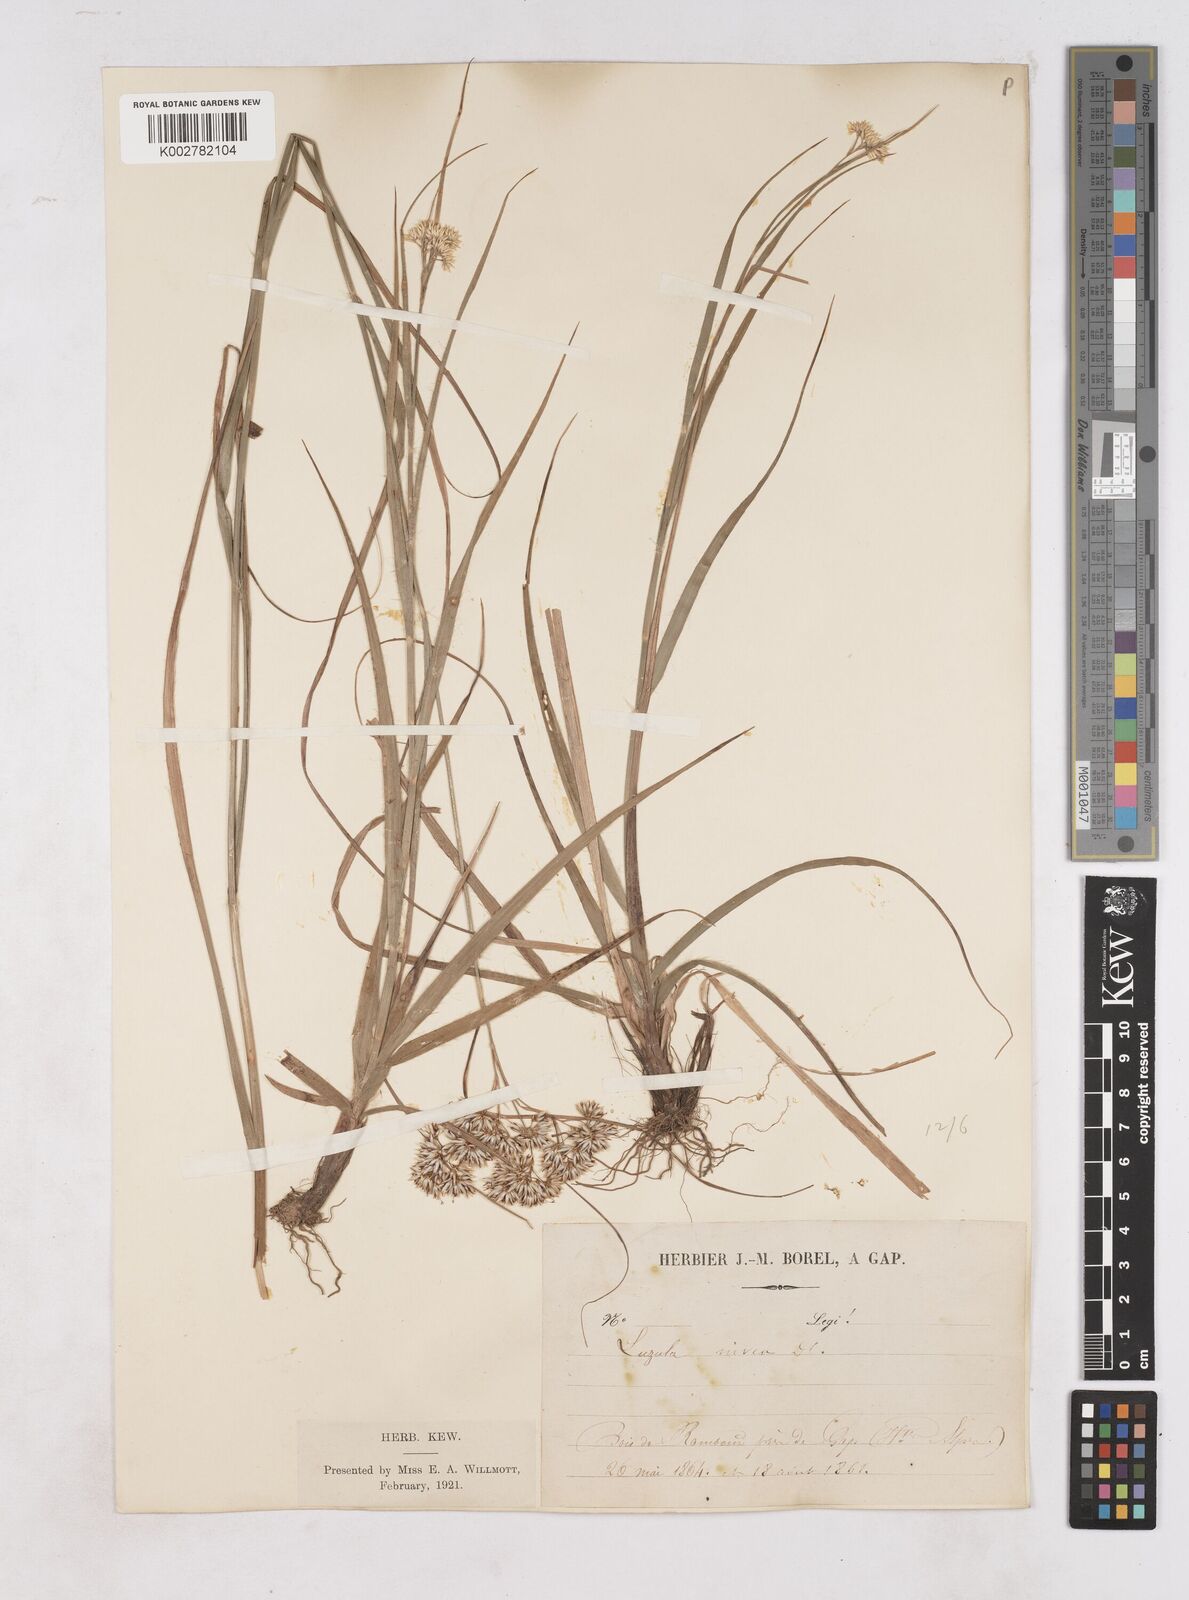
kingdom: Plantae
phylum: Tracheophyta
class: Liliopsida
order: Poales
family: Juncaceae
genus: Luzula
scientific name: Luzula nivea
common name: Snow-white wood-rush
